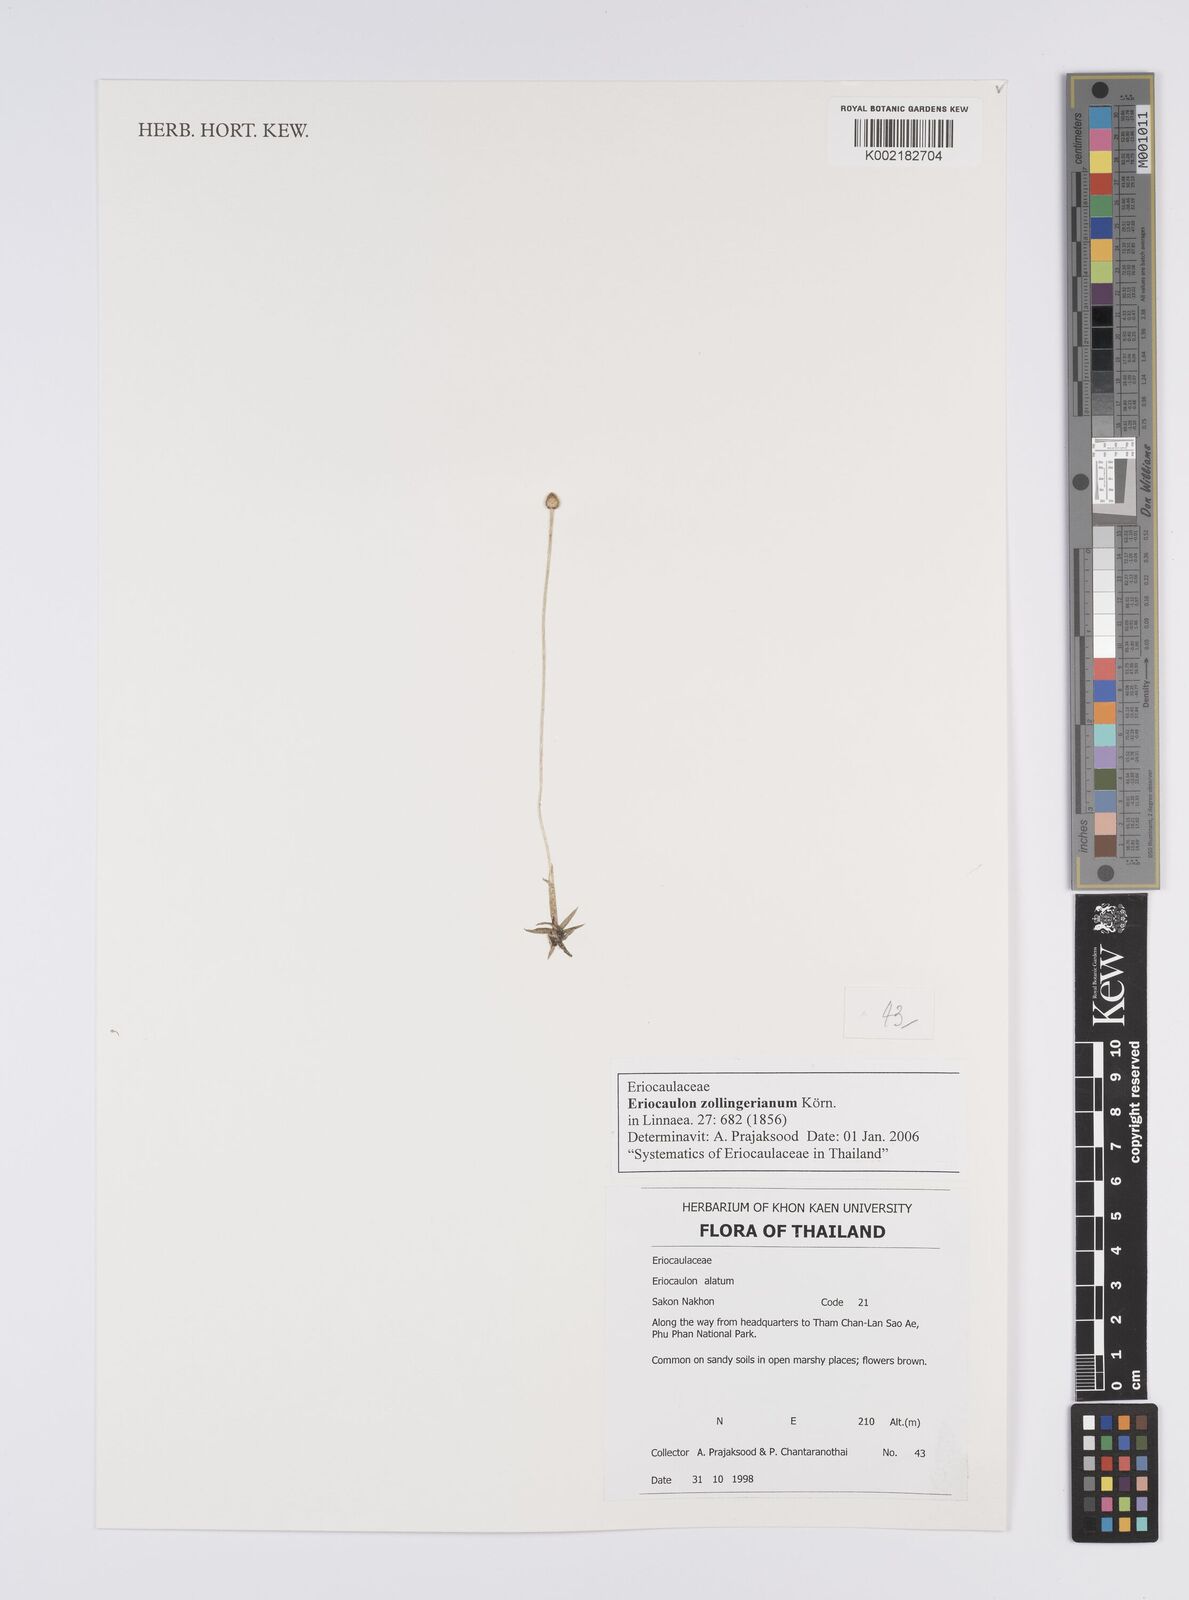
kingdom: Plantae
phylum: Tracheophyta
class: Liliopsida
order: Poales
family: Eriocaulaceae
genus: Eriocaulon
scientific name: Eriocaulon zollingerianum
